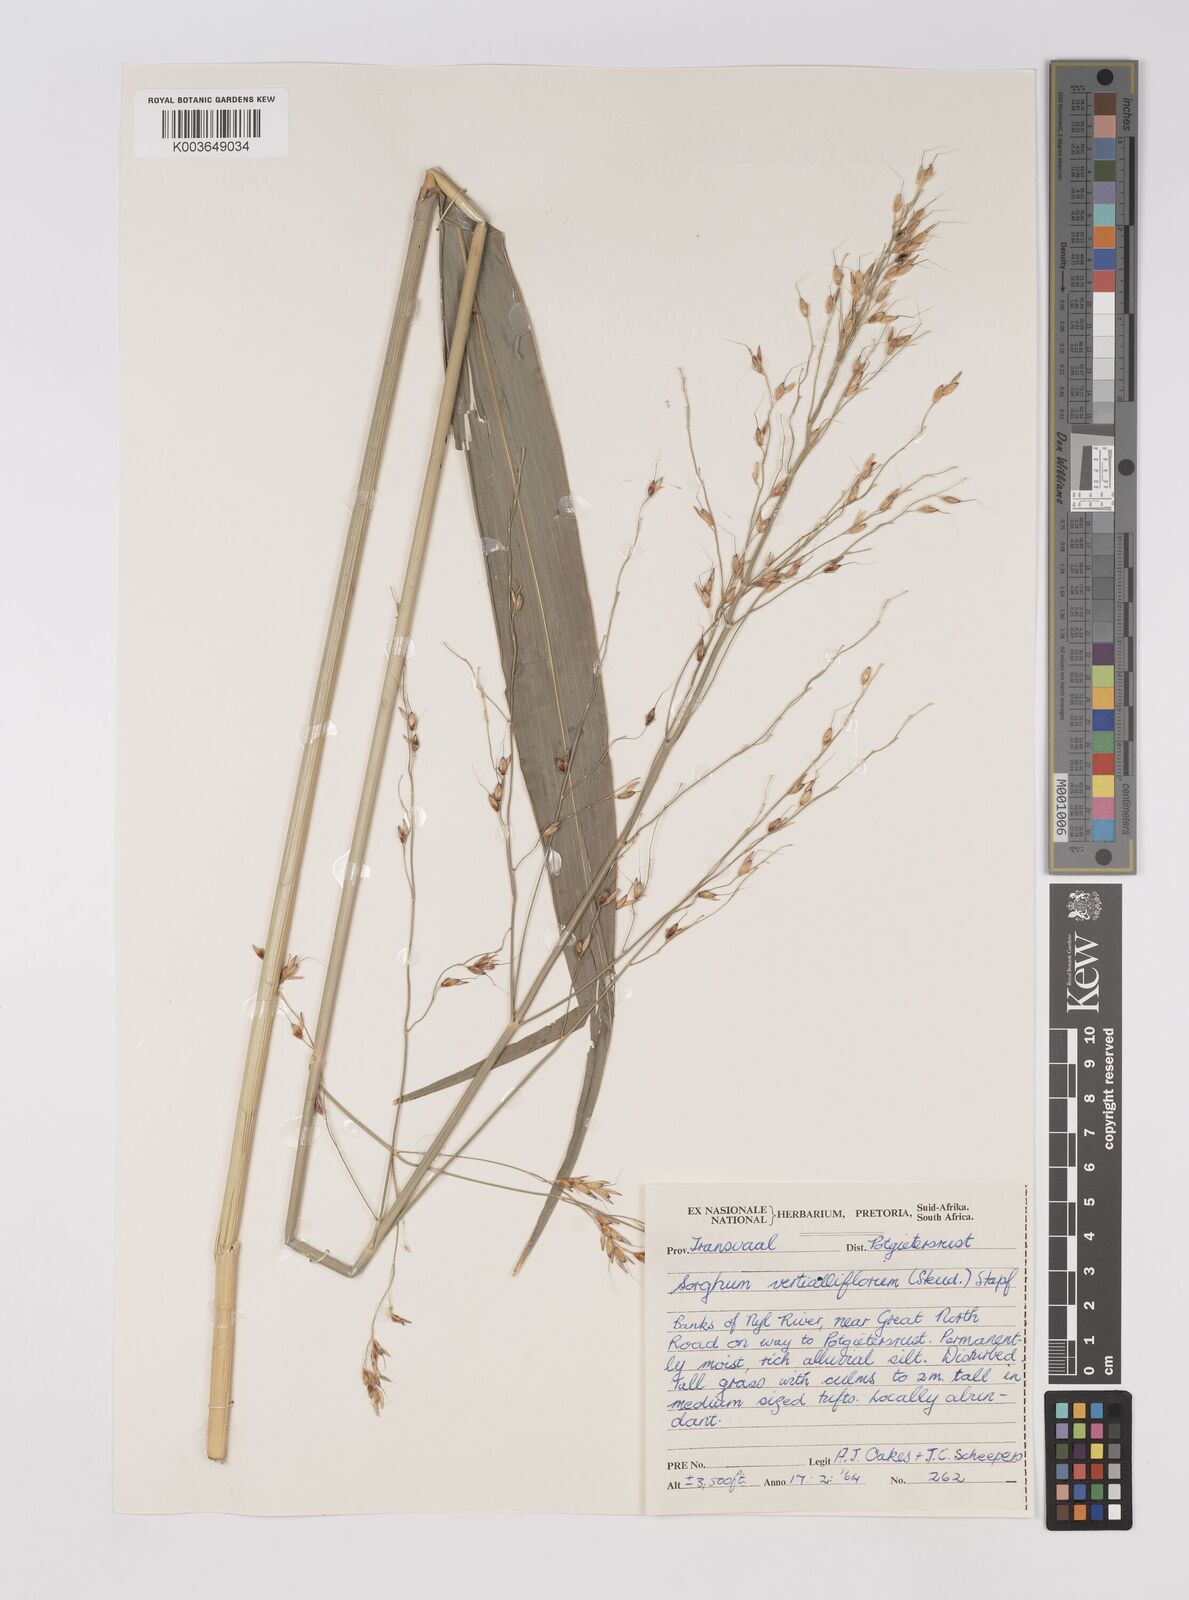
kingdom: Plantae
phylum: Tracheophyta
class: Liliopsida
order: Poales
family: Poaceae
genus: Sorghum
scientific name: Sorghum arundinaceum
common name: Sorghum
